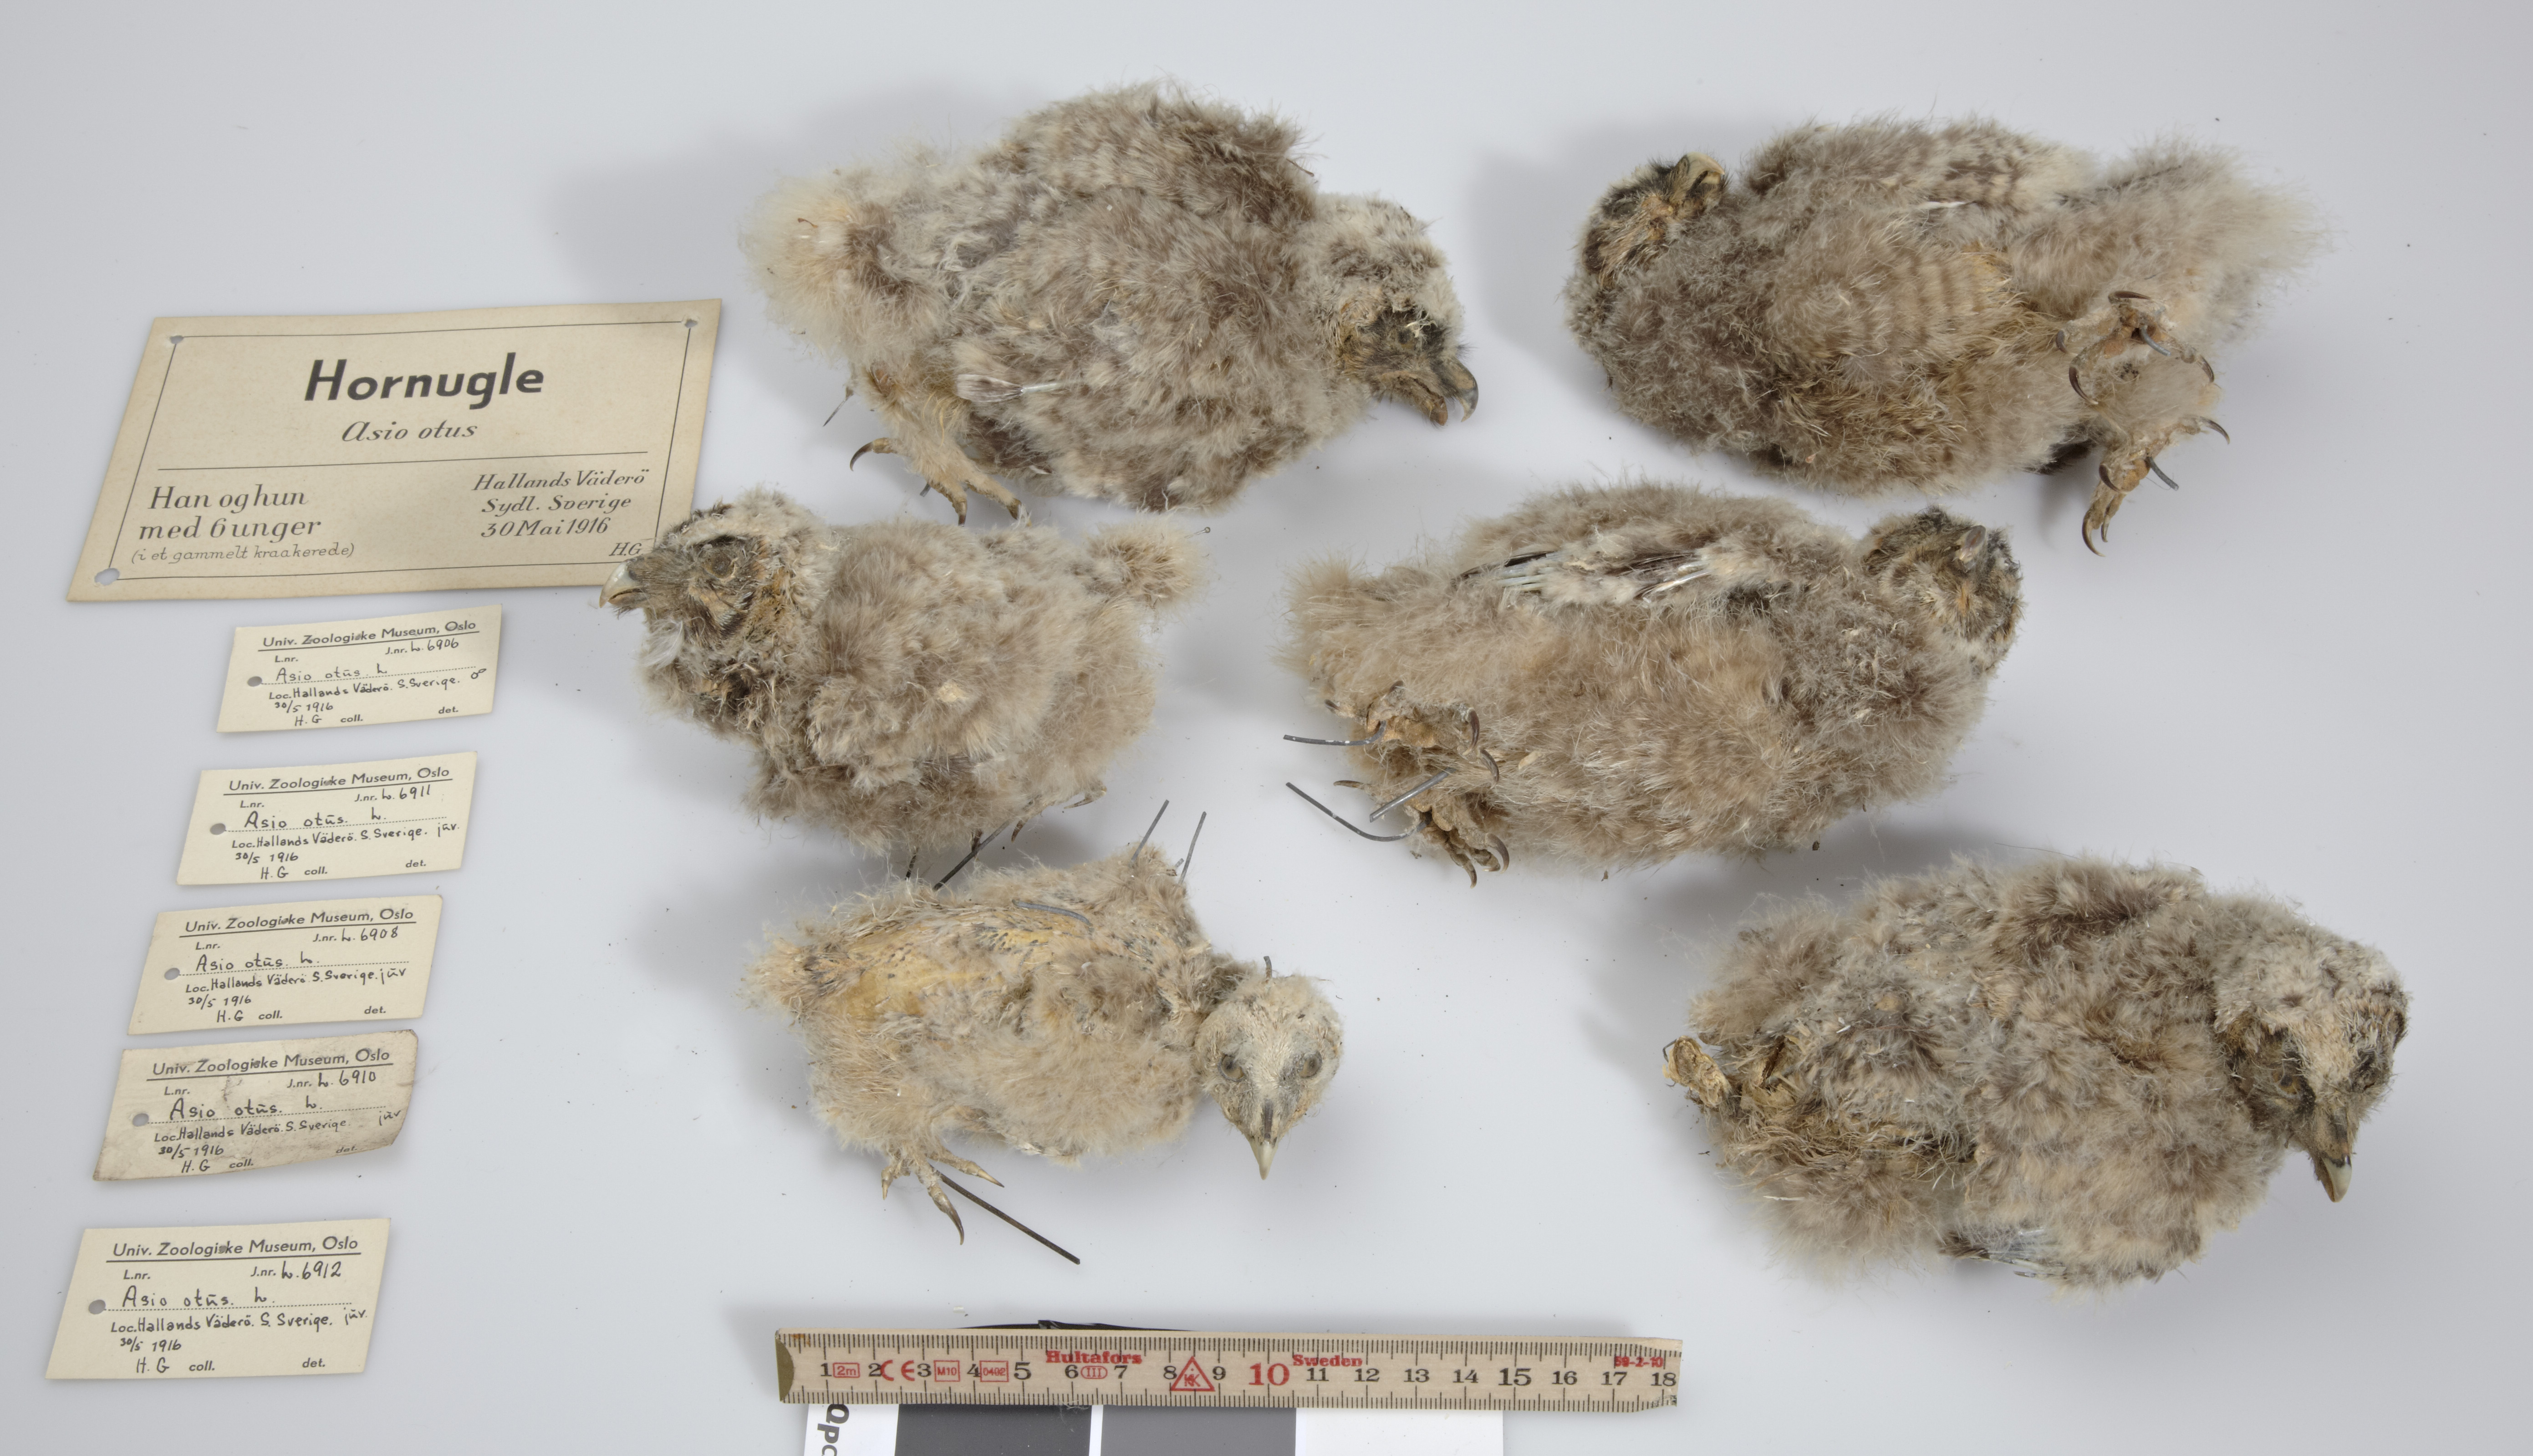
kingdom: Animalia
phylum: Chordata
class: Aves
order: Strigiformes
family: Strigidae
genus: Asio
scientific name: Asio otus
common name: Long-eared owl
